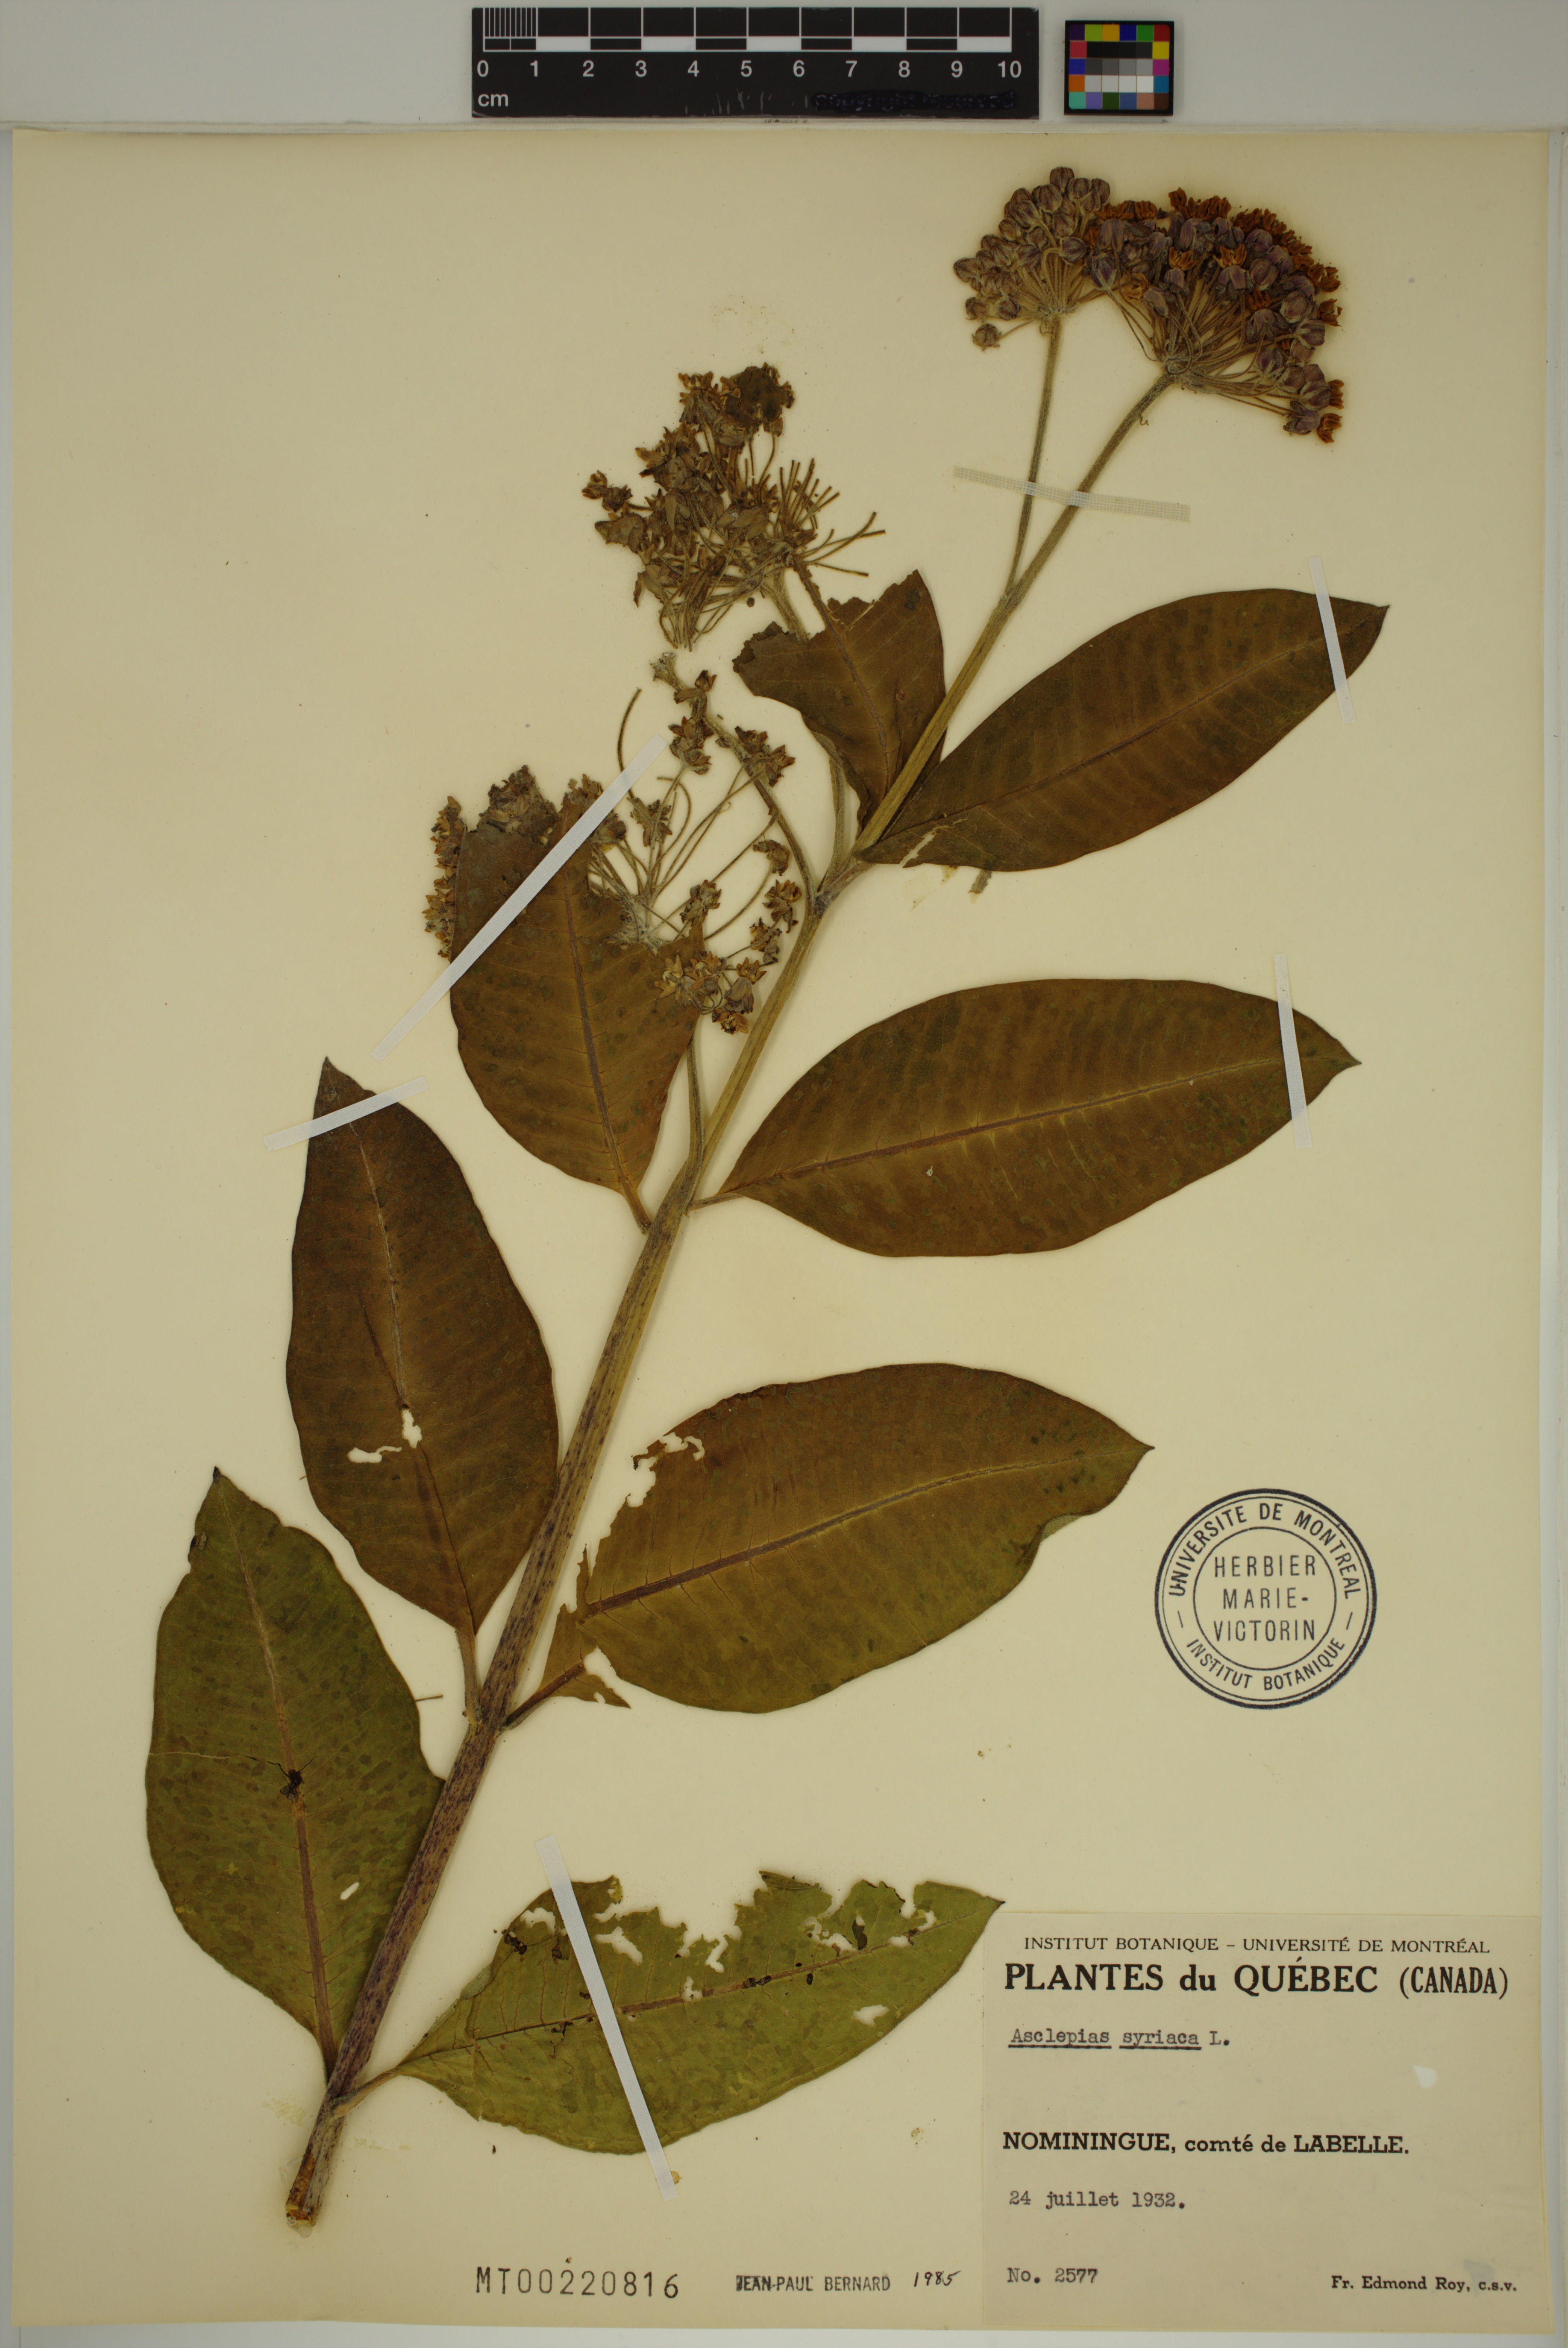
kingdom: Plantae
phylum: Tracheophyta
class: Magnoliopsida
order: Gentianales
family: Apocynaceae
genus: Asclepias
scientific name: Asclepias syriaca
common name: Common milkweed
